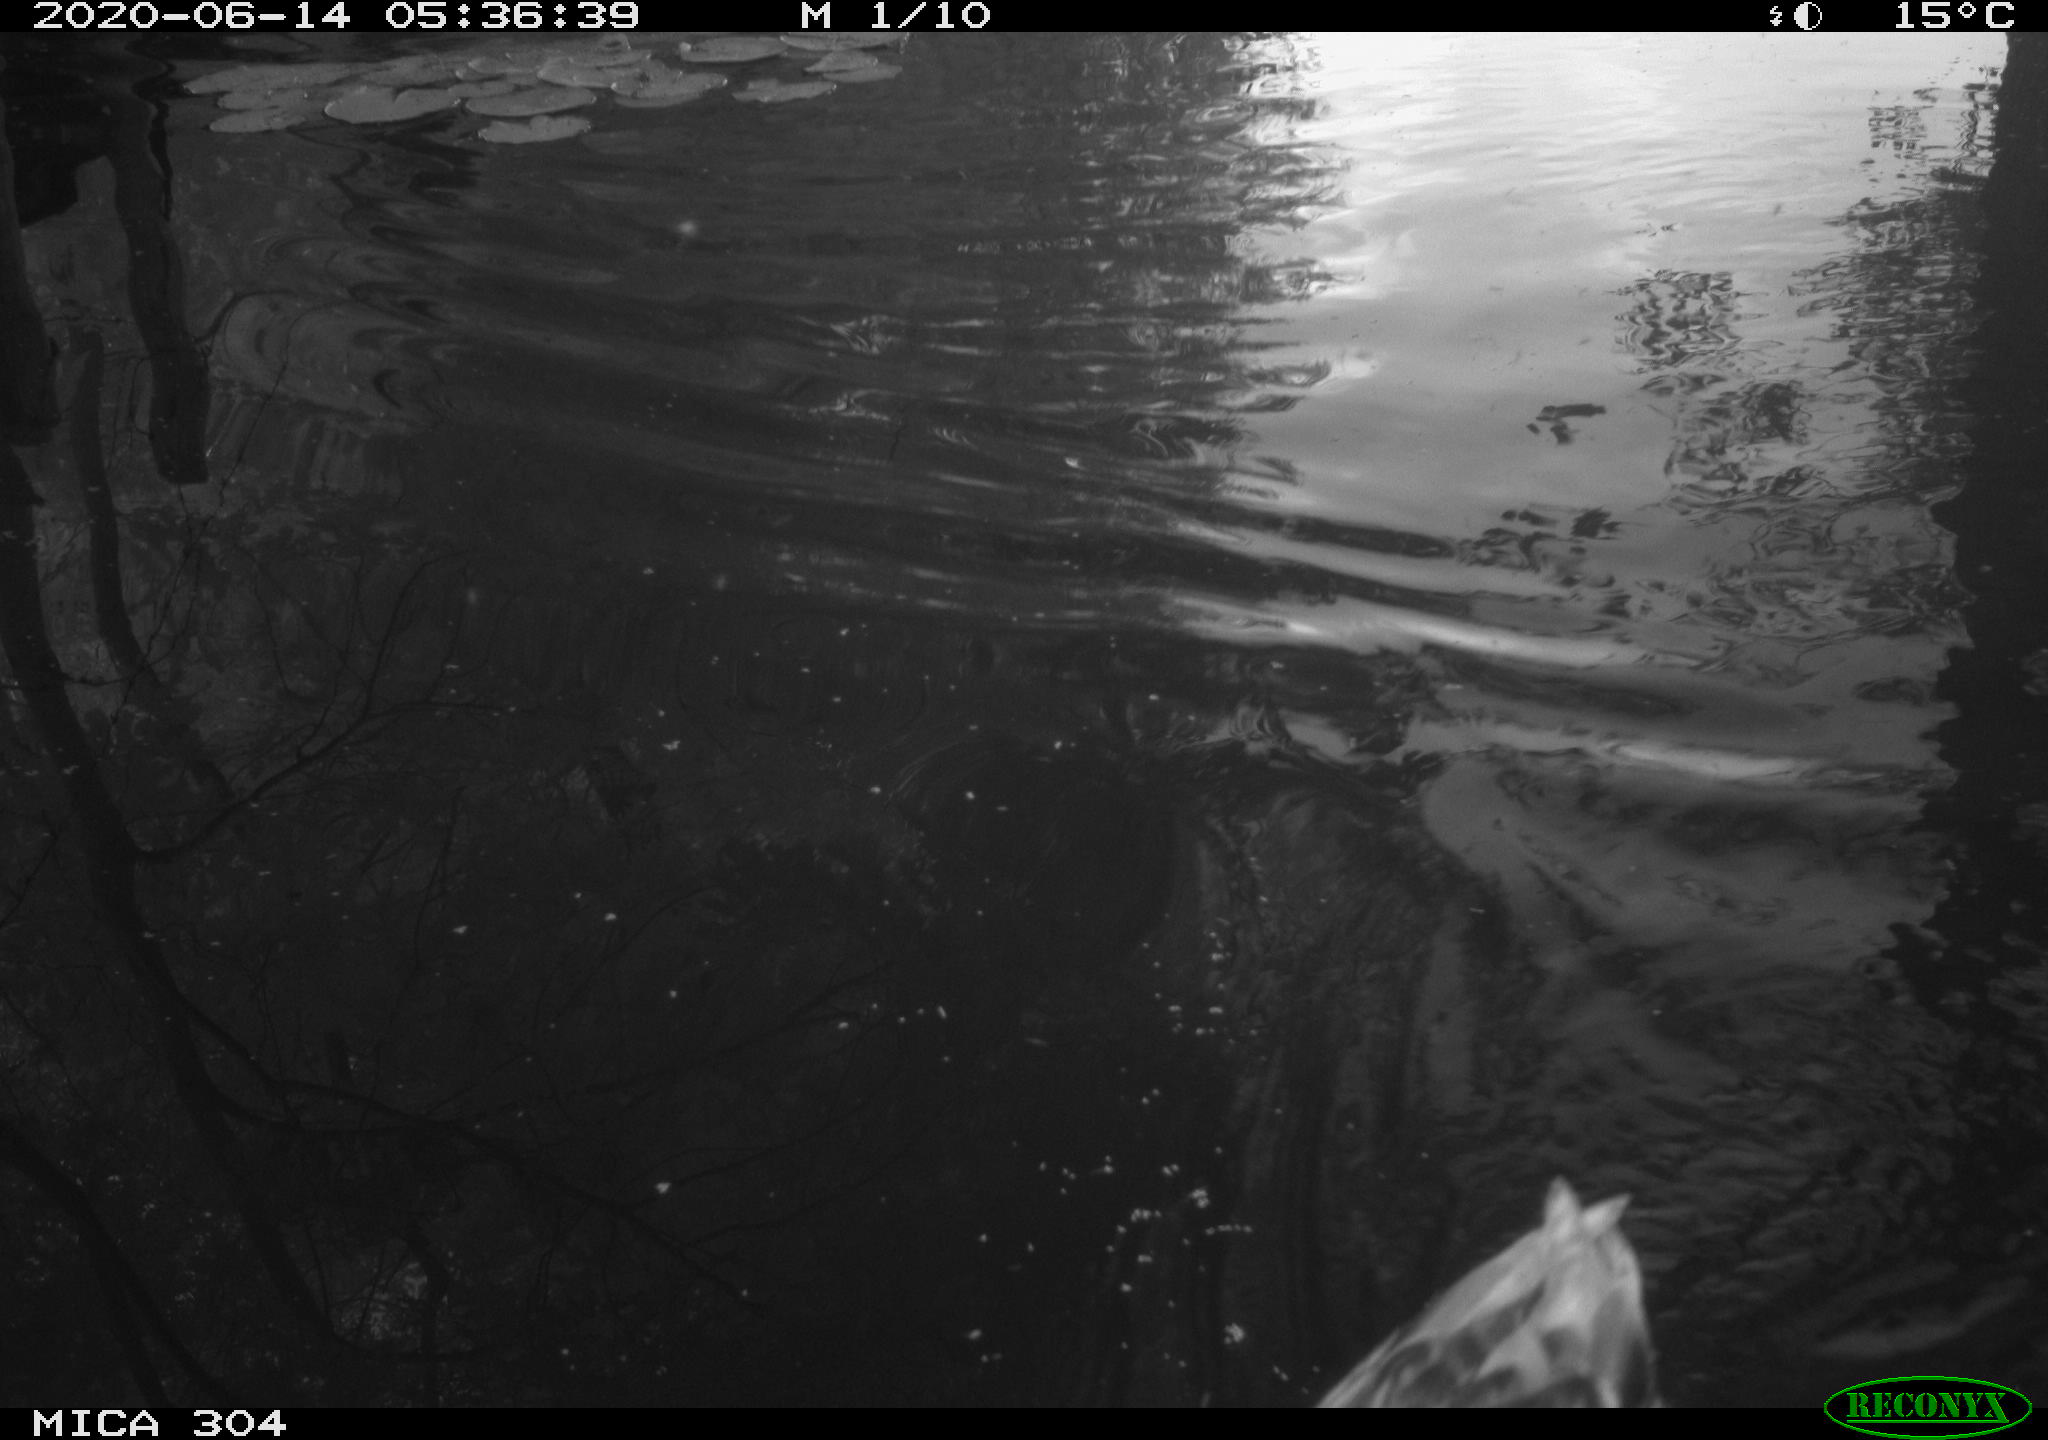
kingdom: Animalia
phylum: Chordata
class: Aves
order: Anseriformes
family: Anatidae
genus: Anas
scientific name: Anas platyrhynchos
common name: Mallard
